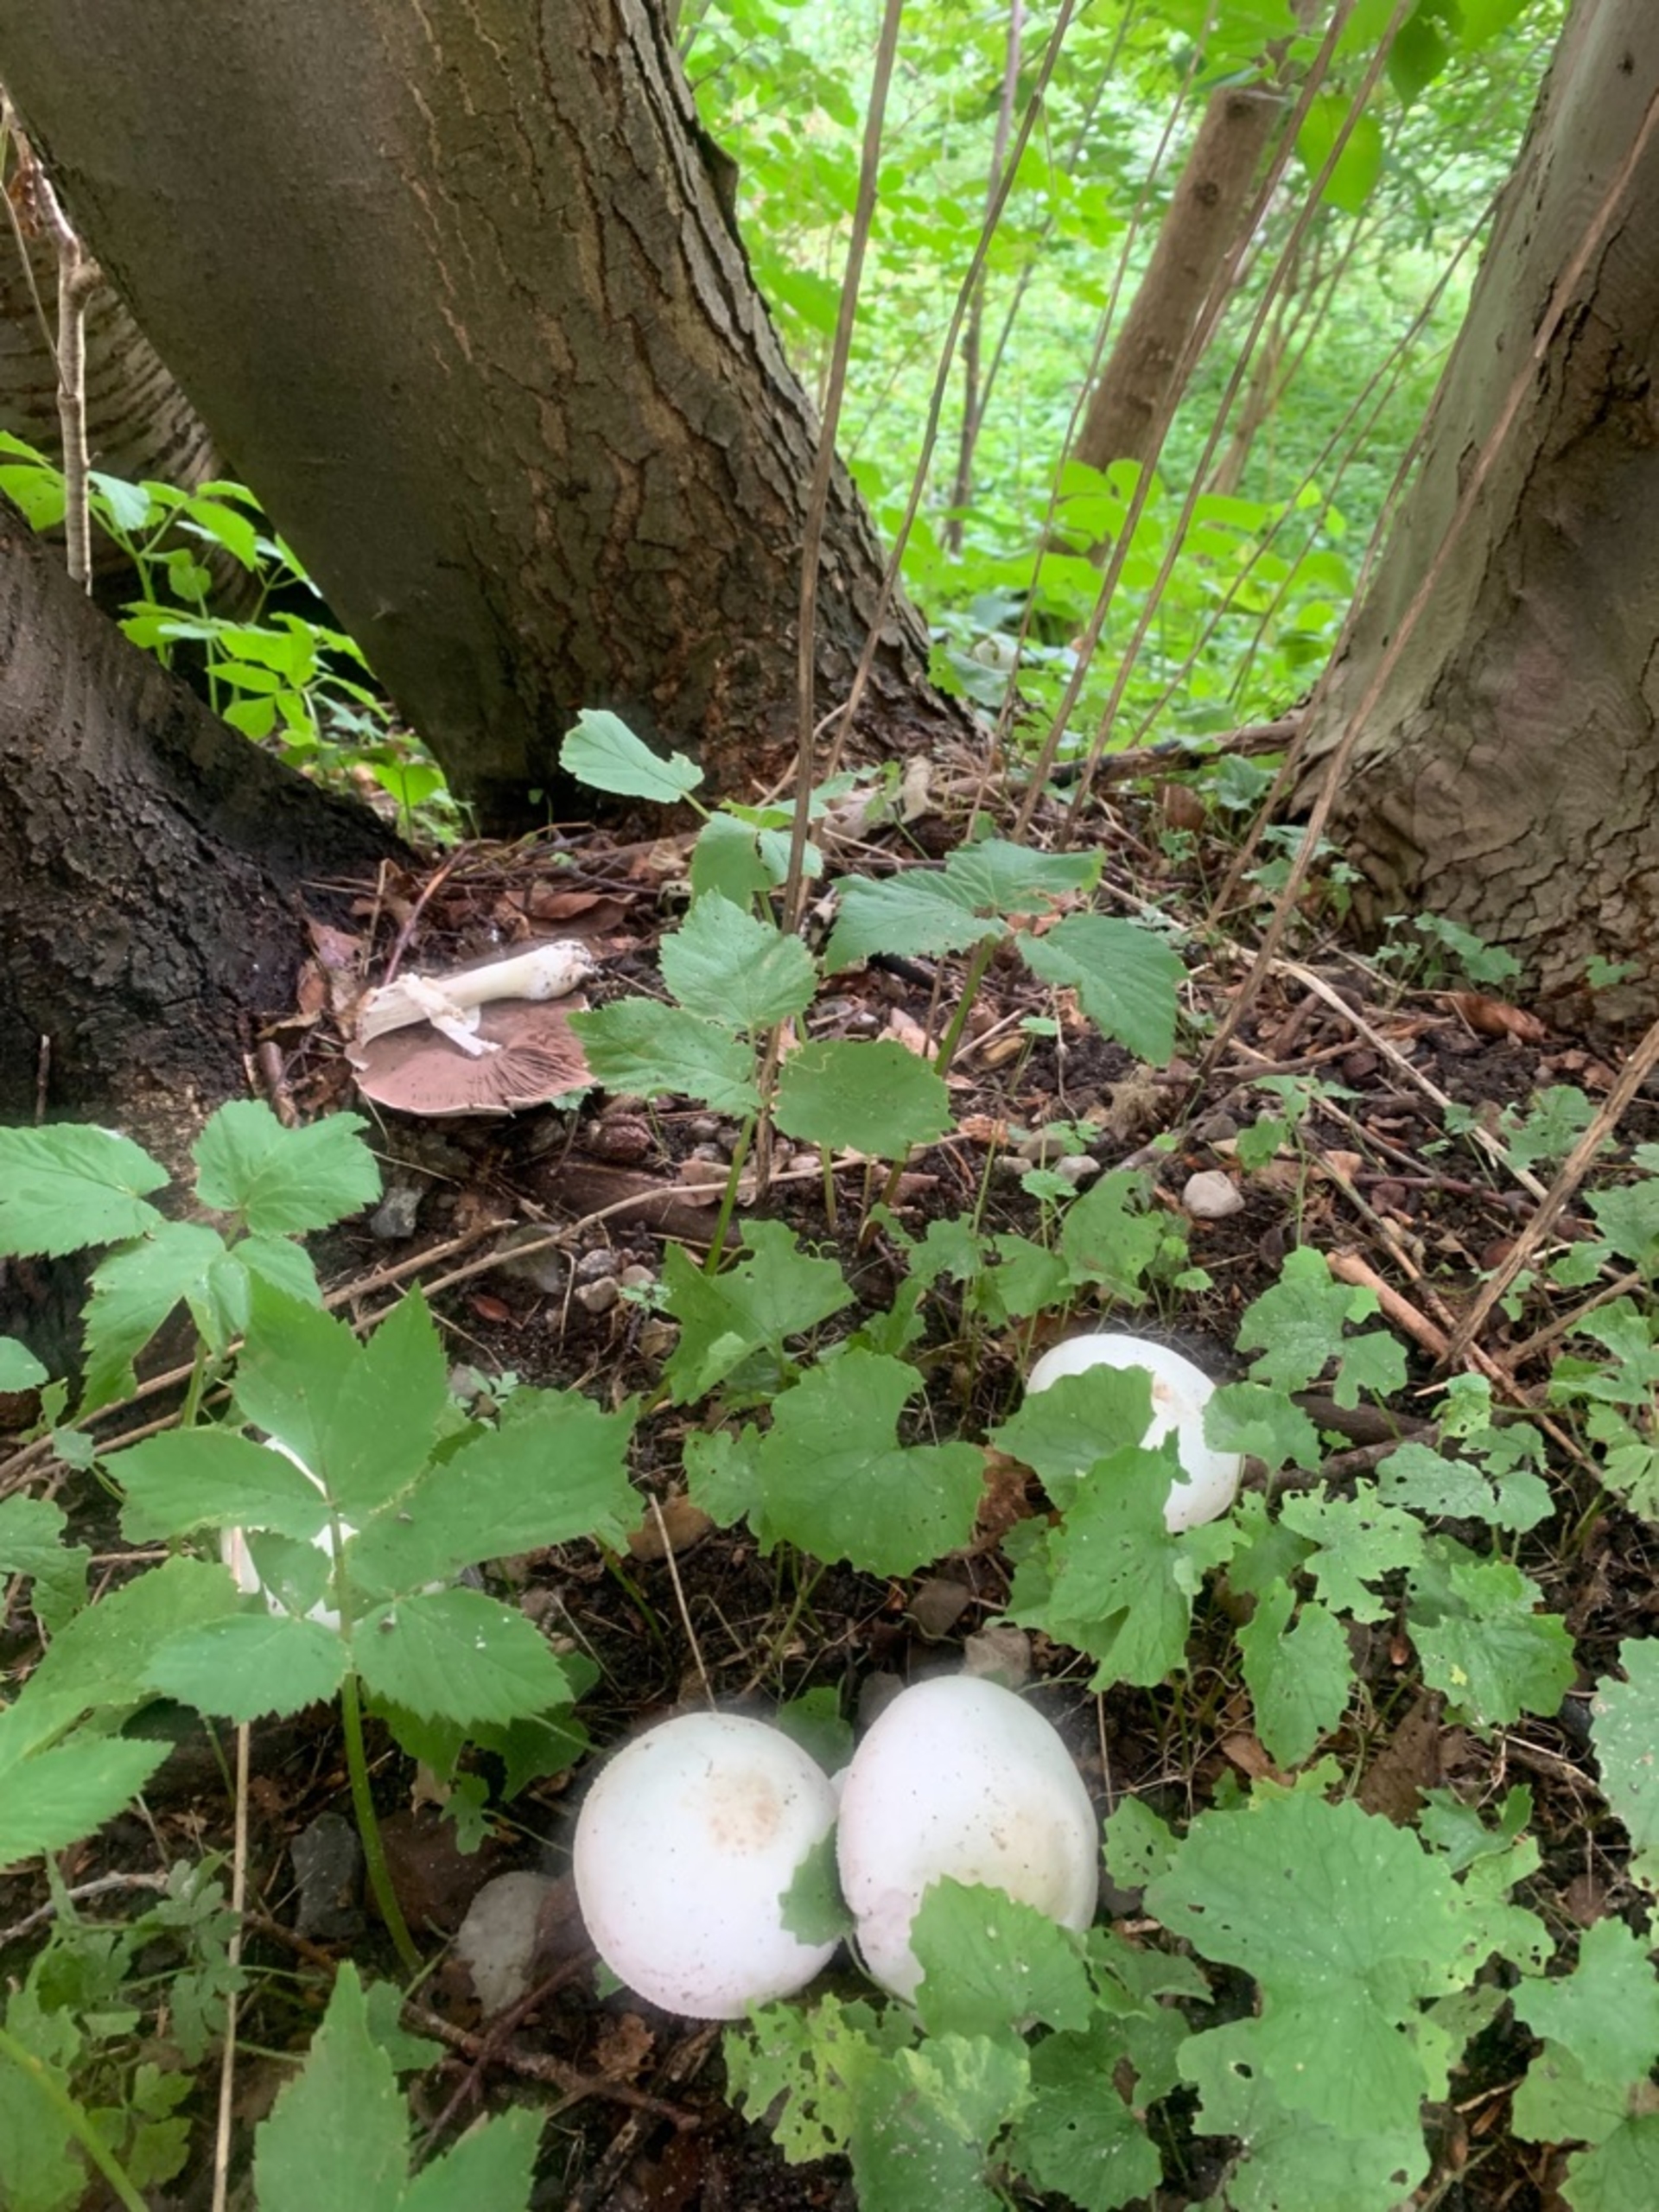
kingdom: Fungi
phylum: Basidiomycota
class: Agaricomycetes
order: Agaricales
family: Agaricaceae
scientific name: Agaricaceae
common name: Champignonfamilien
